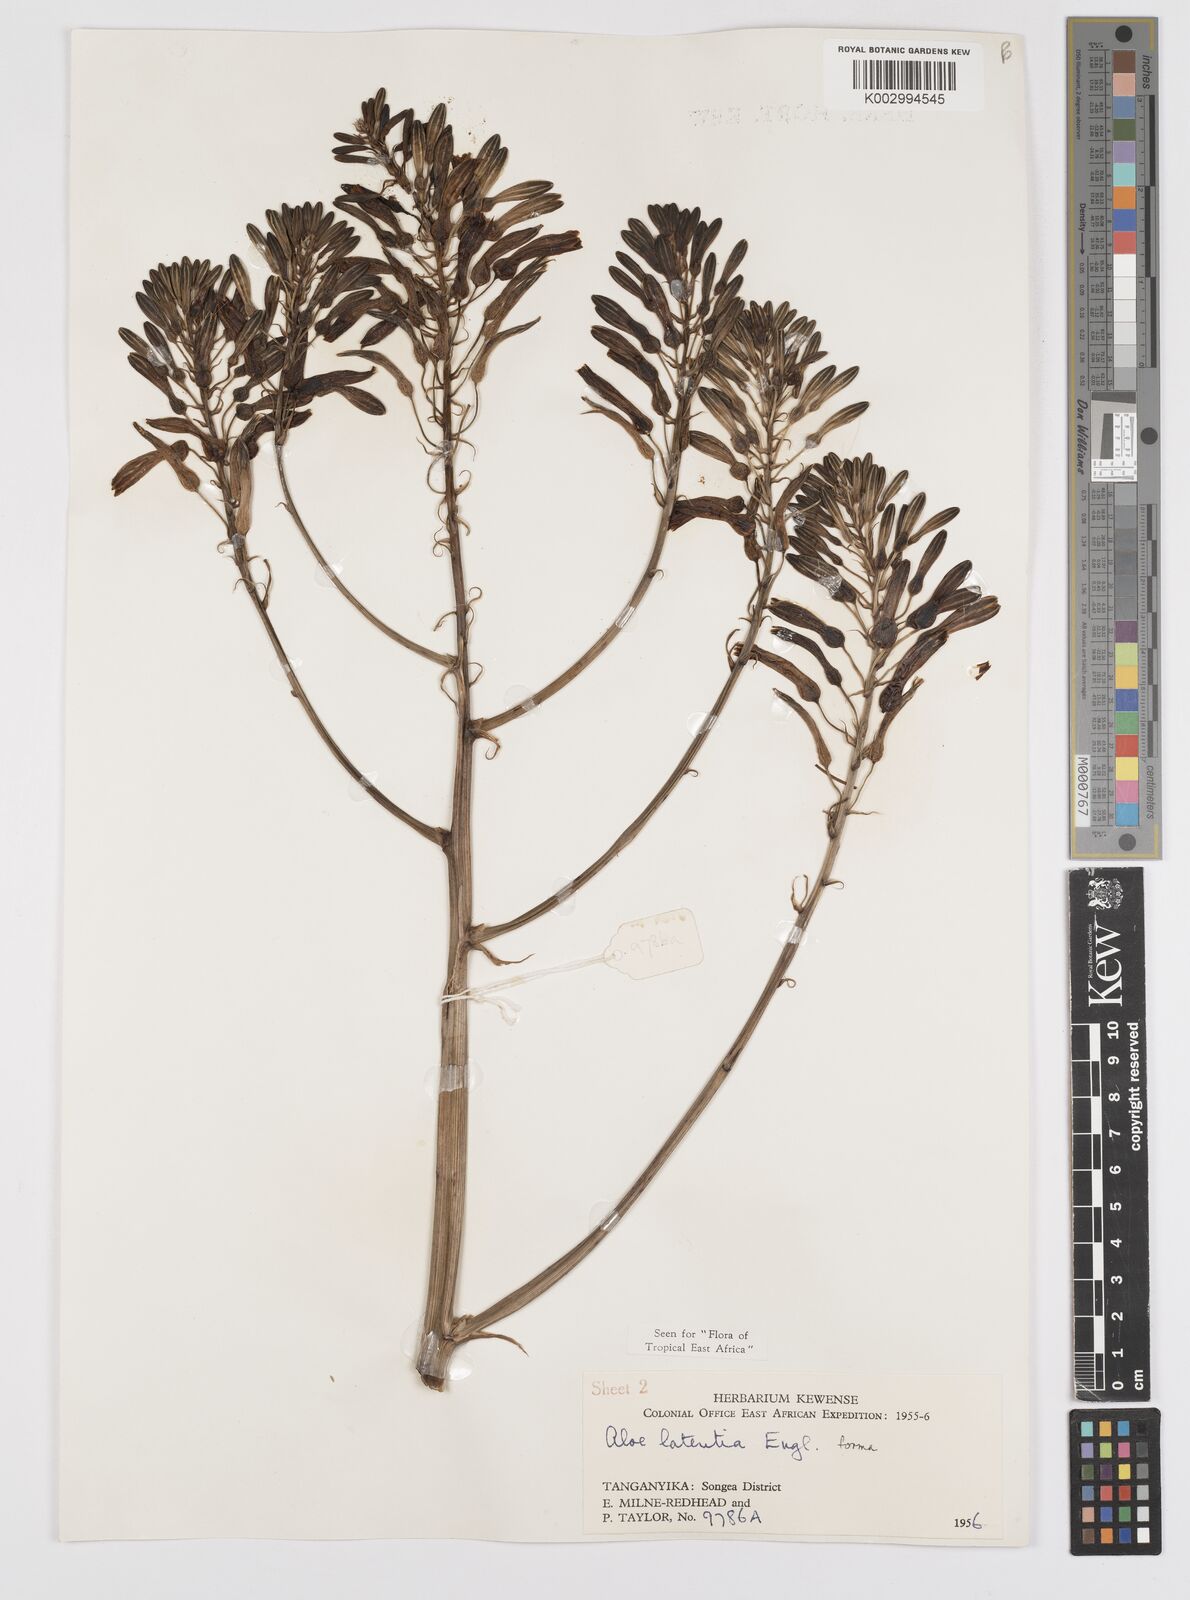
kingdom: Plantae
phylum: Tracheophyta
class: Liliopsida
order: Asparagales
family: Asphodelaceae
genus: Aloe
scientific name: Aloe lateritia
